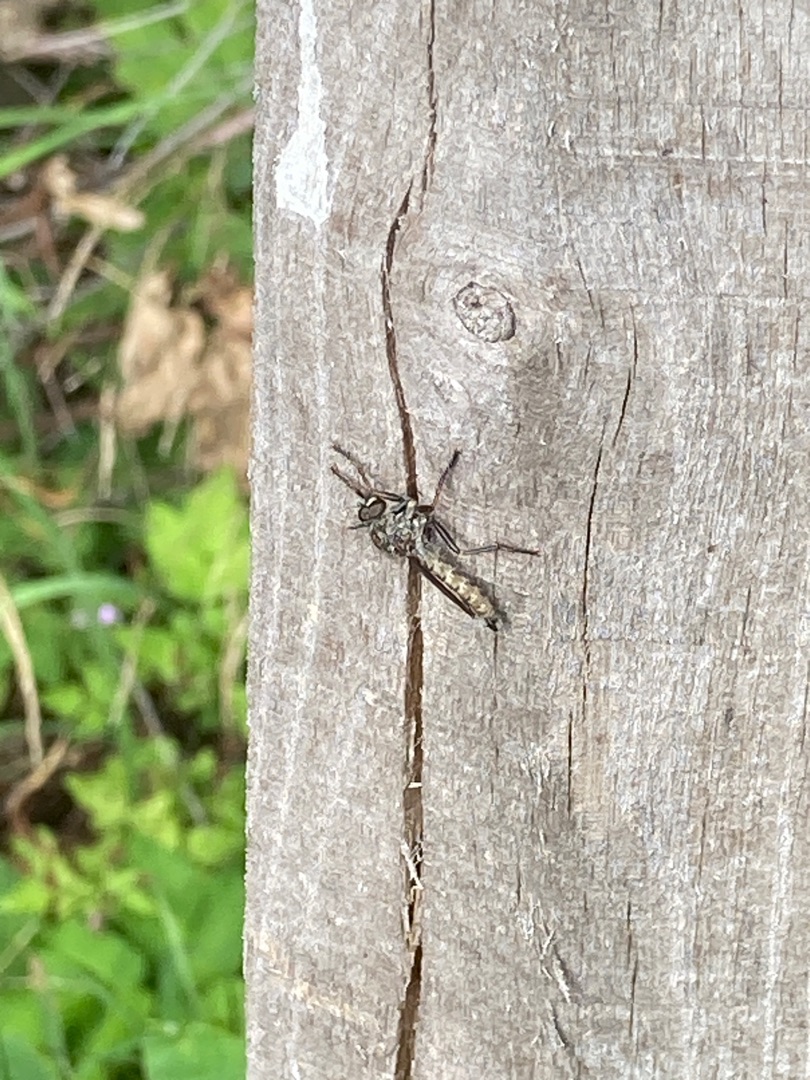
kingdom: Animalia
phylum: Arthropoda
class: Insecta
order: Diptera
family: Asilidae
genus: Machimus
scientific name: Machimus atricapillus
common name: Sort hårrovflue
